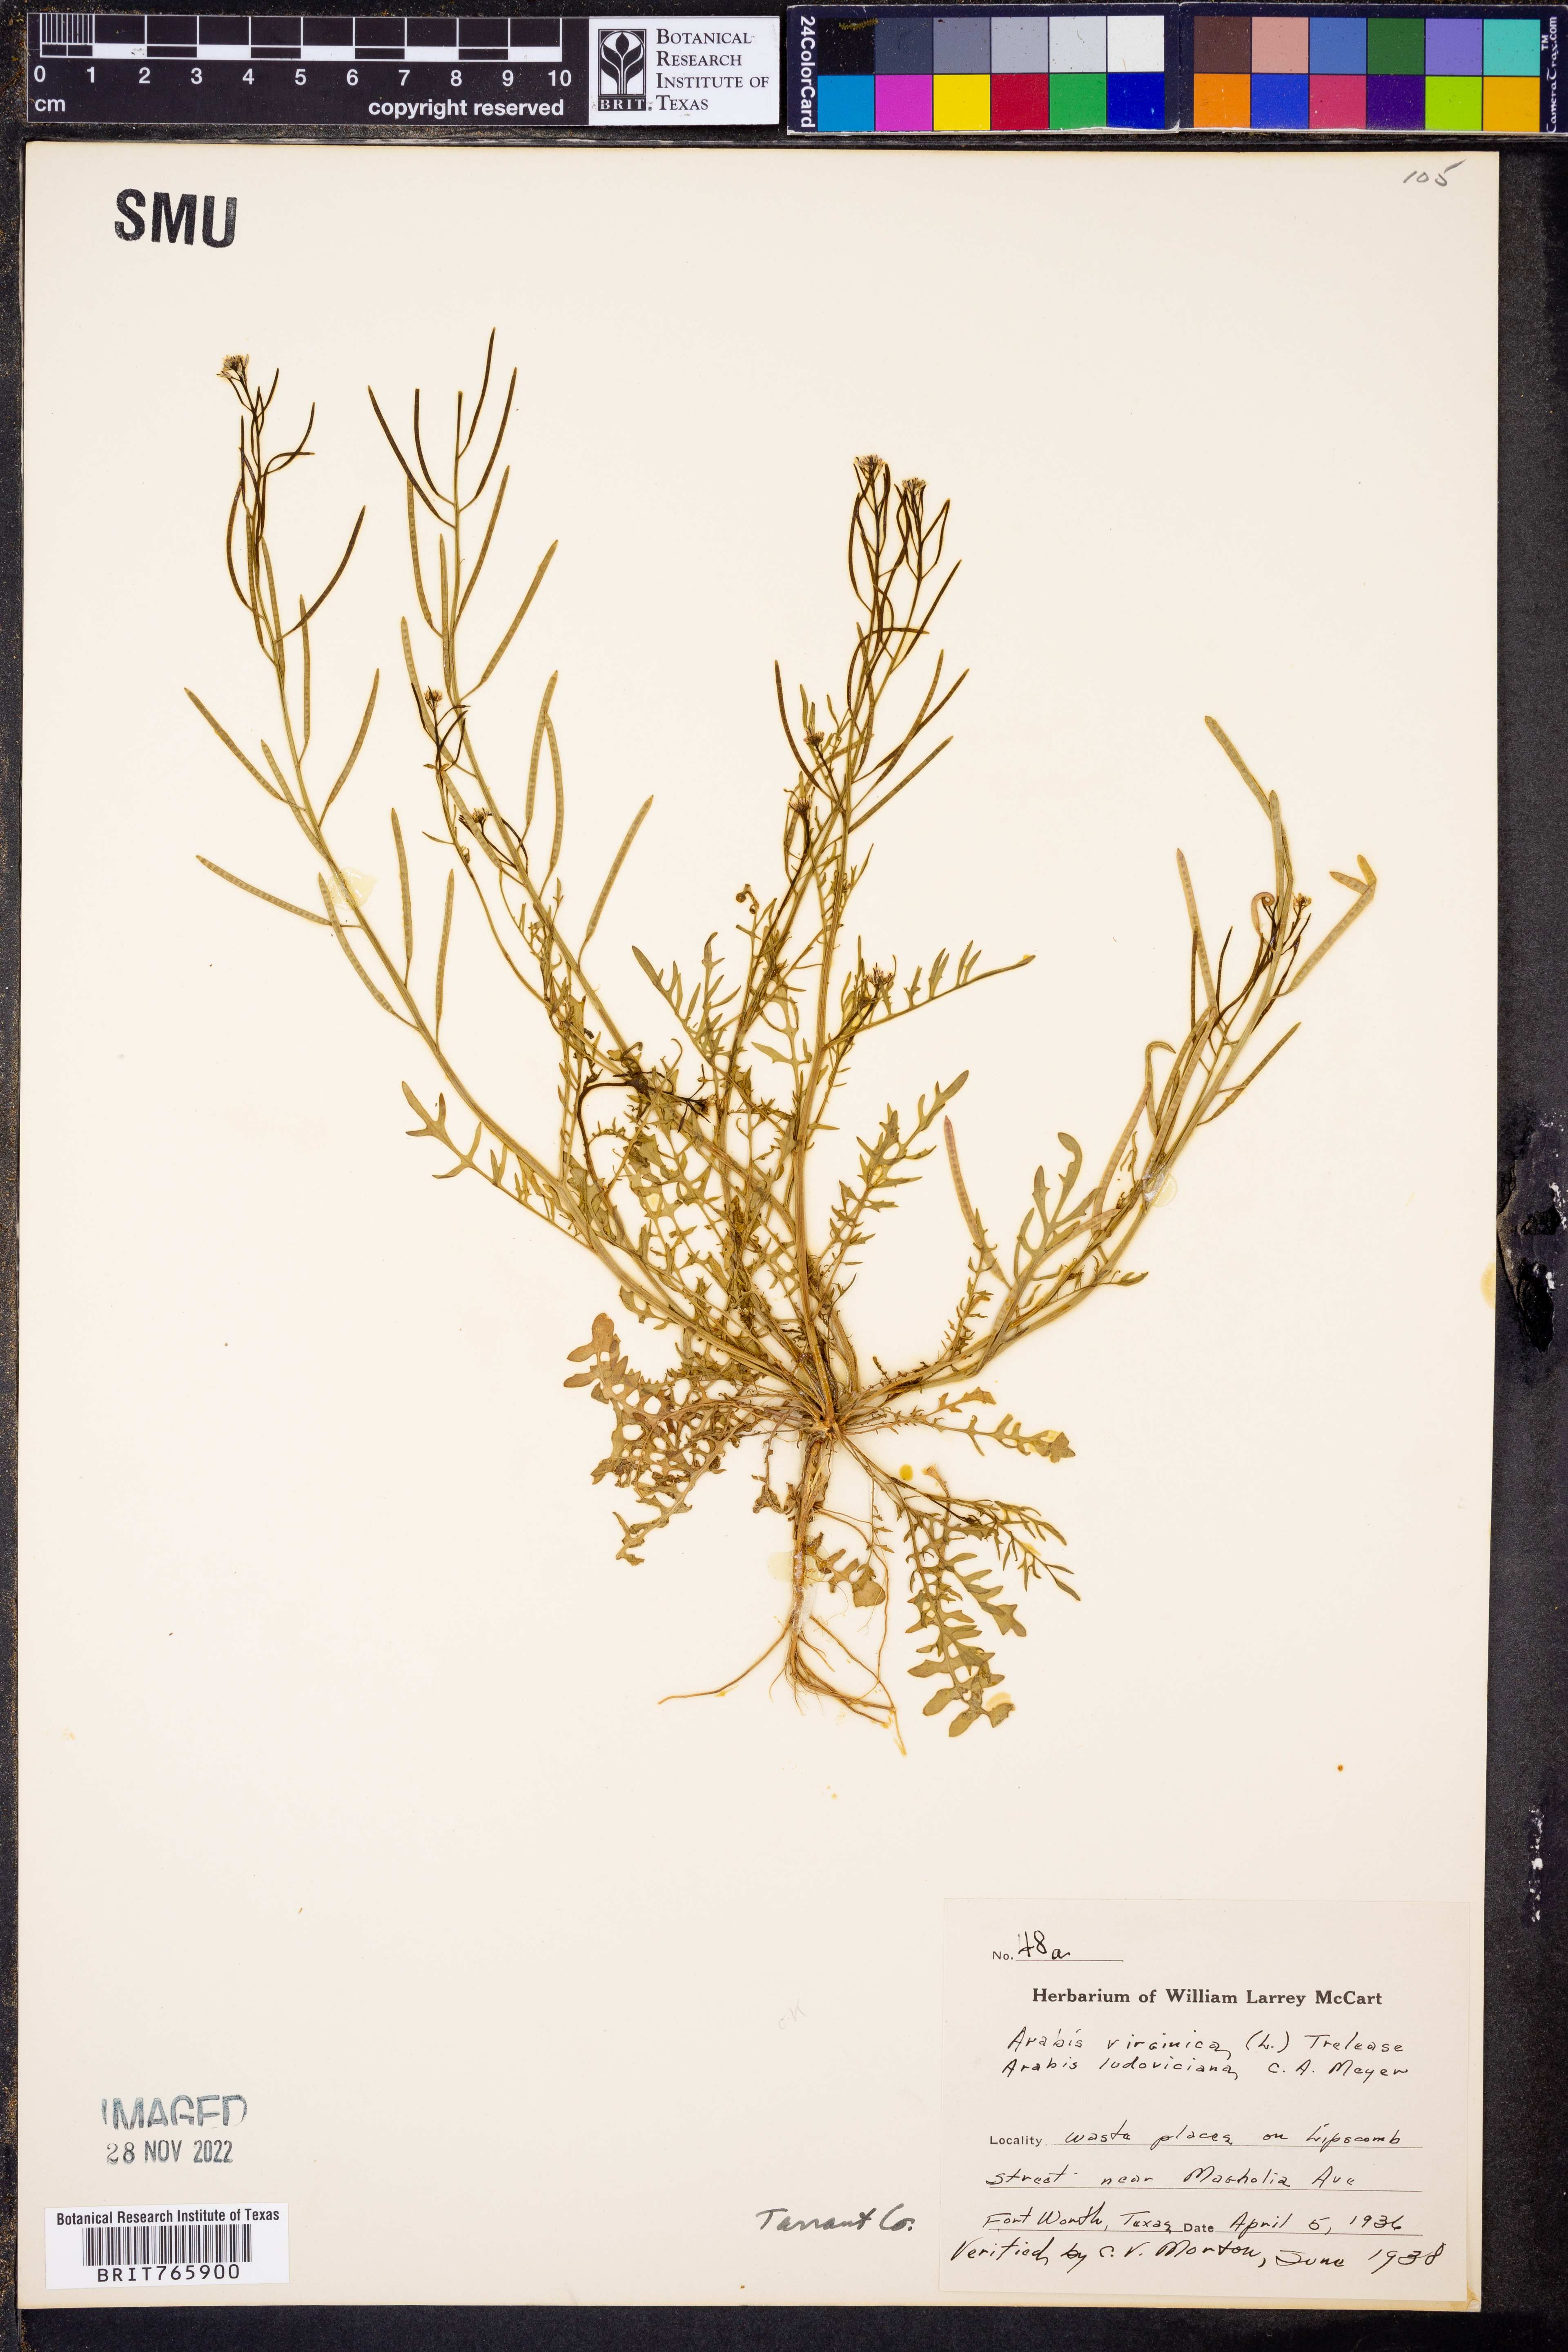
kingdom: Plantae
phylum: Tracheophyta
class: Magnoliopsida
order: Brassicales
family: Brassicaceae
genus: Planodes
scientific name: Planodes virginicum
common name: Virginia cress
